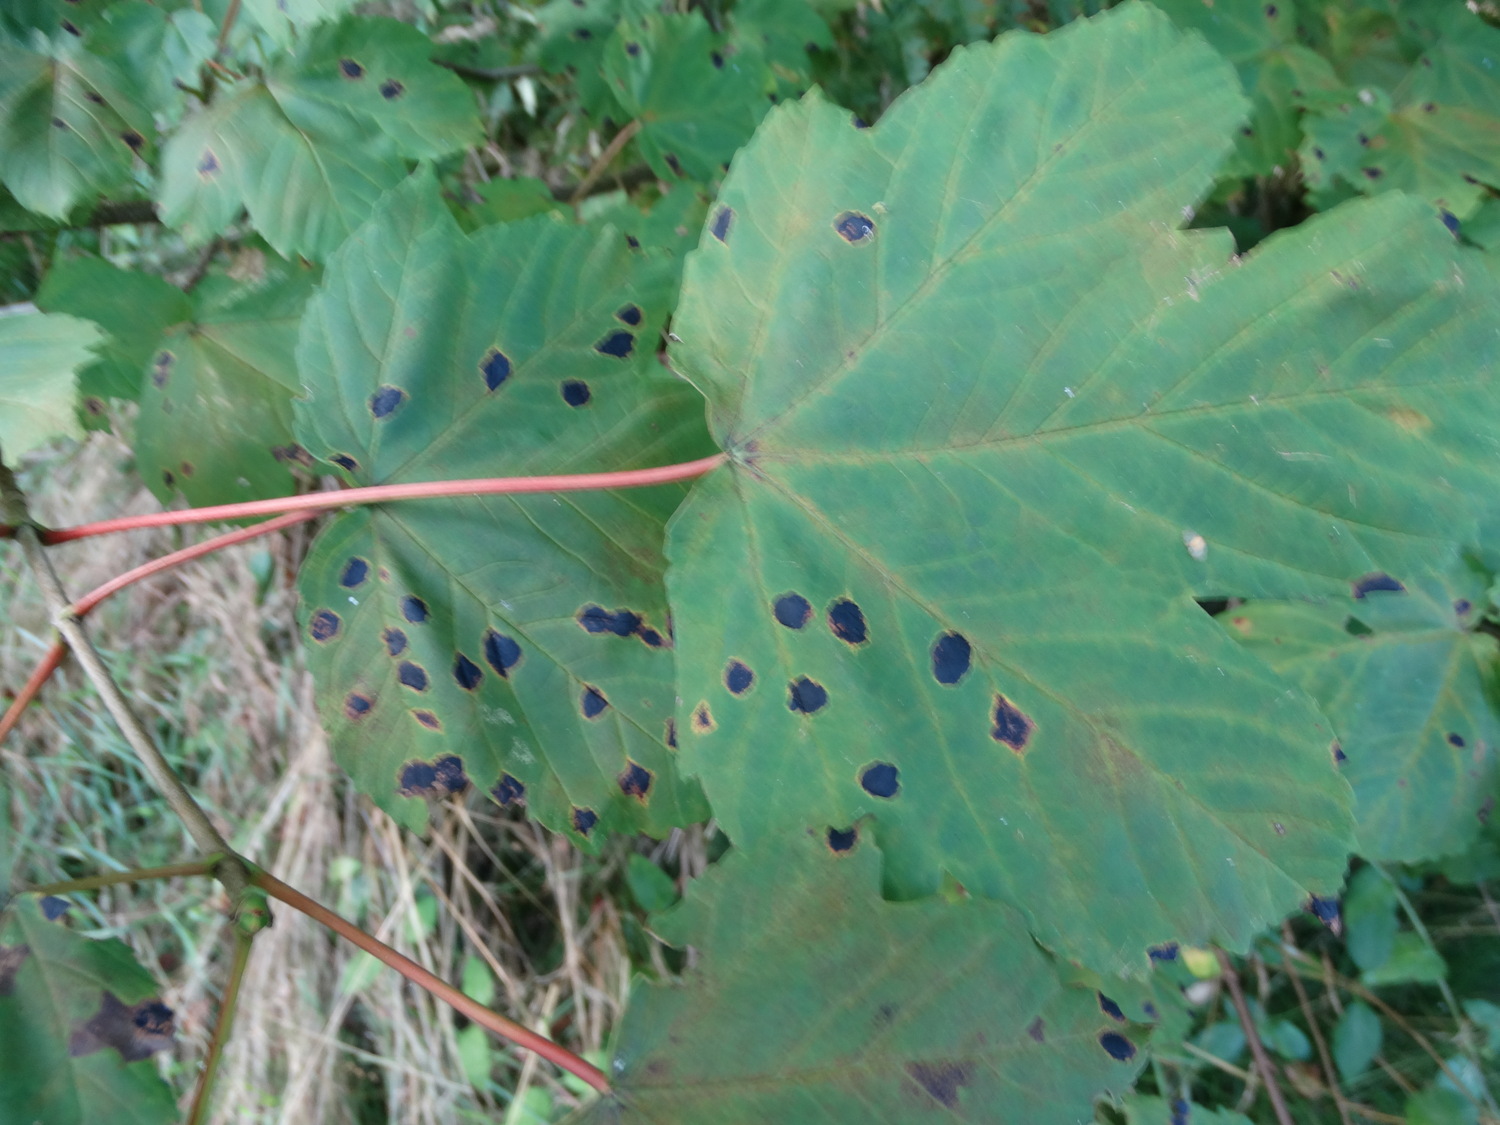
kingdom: Fungi
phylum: Ascomycota
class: Leotiomycetes
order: Rhytismatales
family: Rhytismataceae
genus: Rhytisma
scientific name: Rhytisma acerinum
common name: ahorn-rynkeplet
